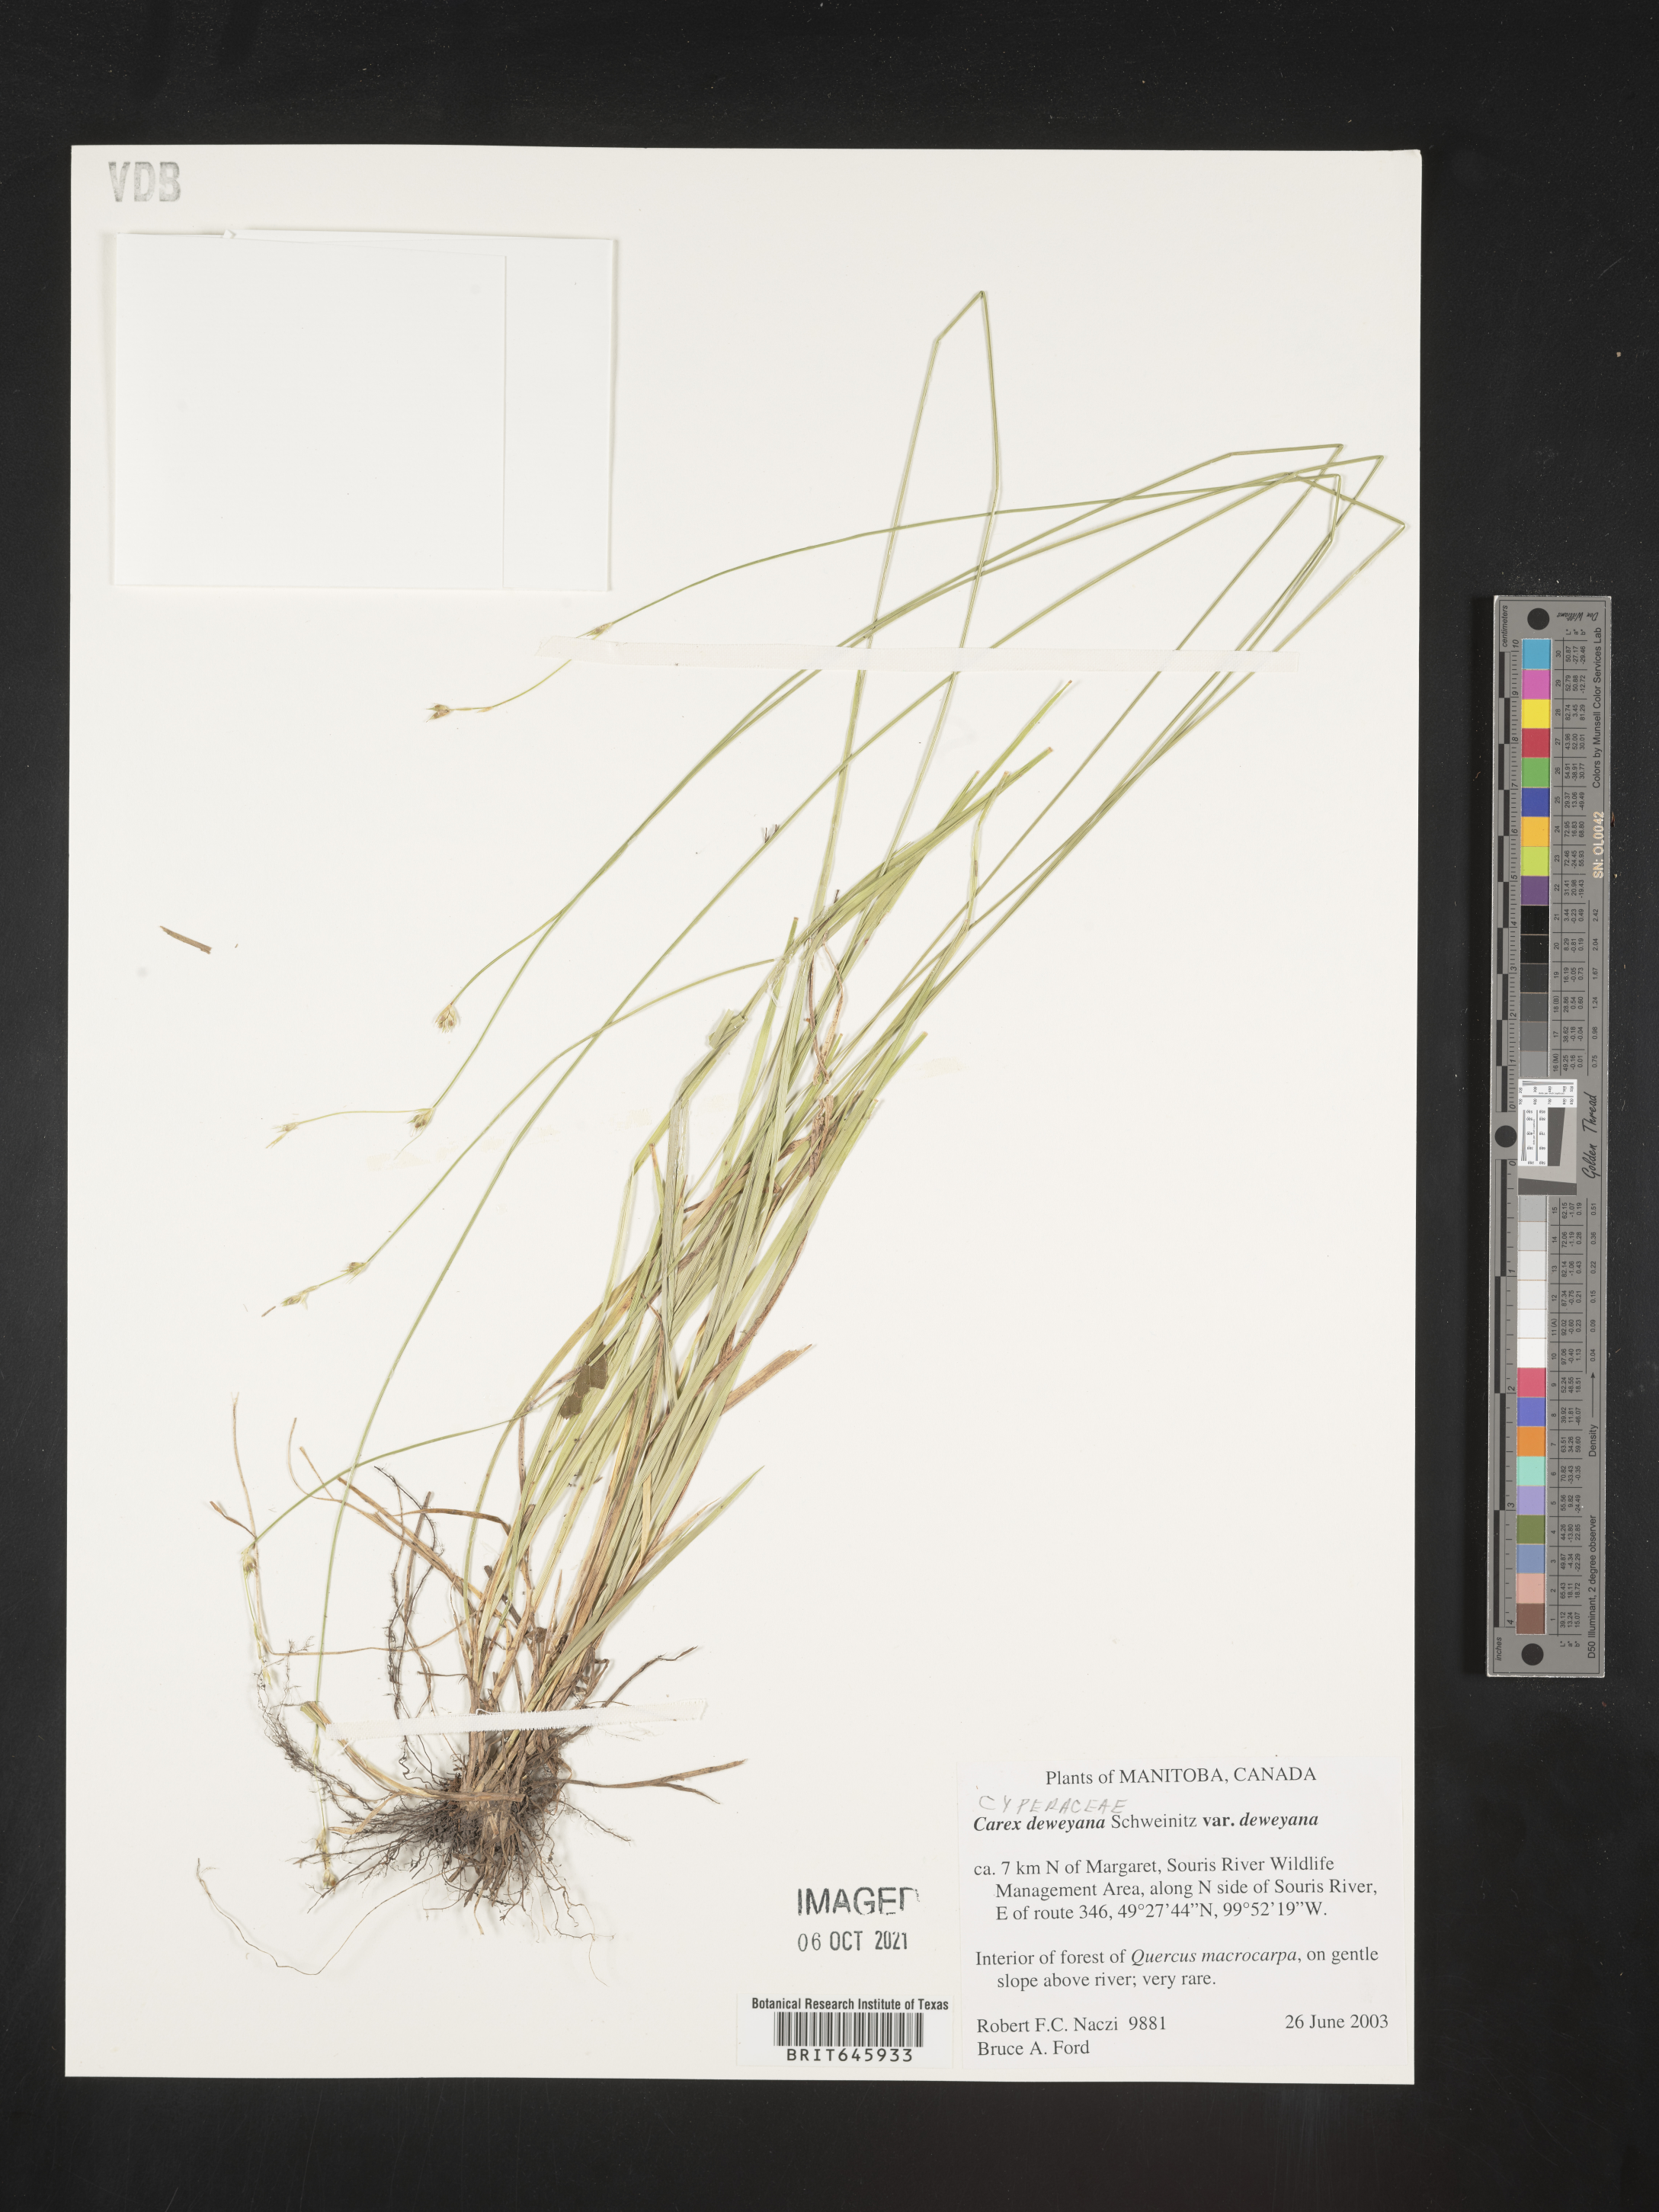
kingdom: Plantae
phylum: Tracheophyta
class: Liliopsida
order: Poales
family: Cyperaceae
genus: Carex
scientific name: Carex deweyana
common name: Dewey's sedge
